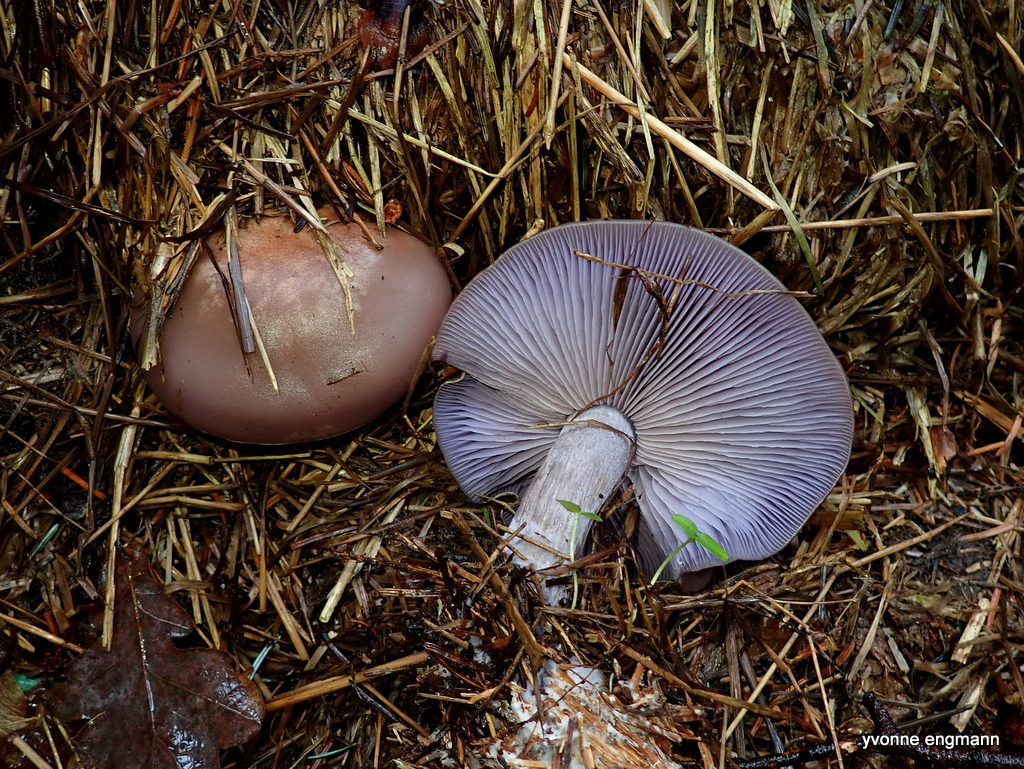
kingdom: Fungi
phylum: Basidiomycota
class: Agaricomycetes
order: Agaricales
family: Tricholomataceae
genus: Lepista
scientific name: Lepista nuda
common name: violet hekseringshat
